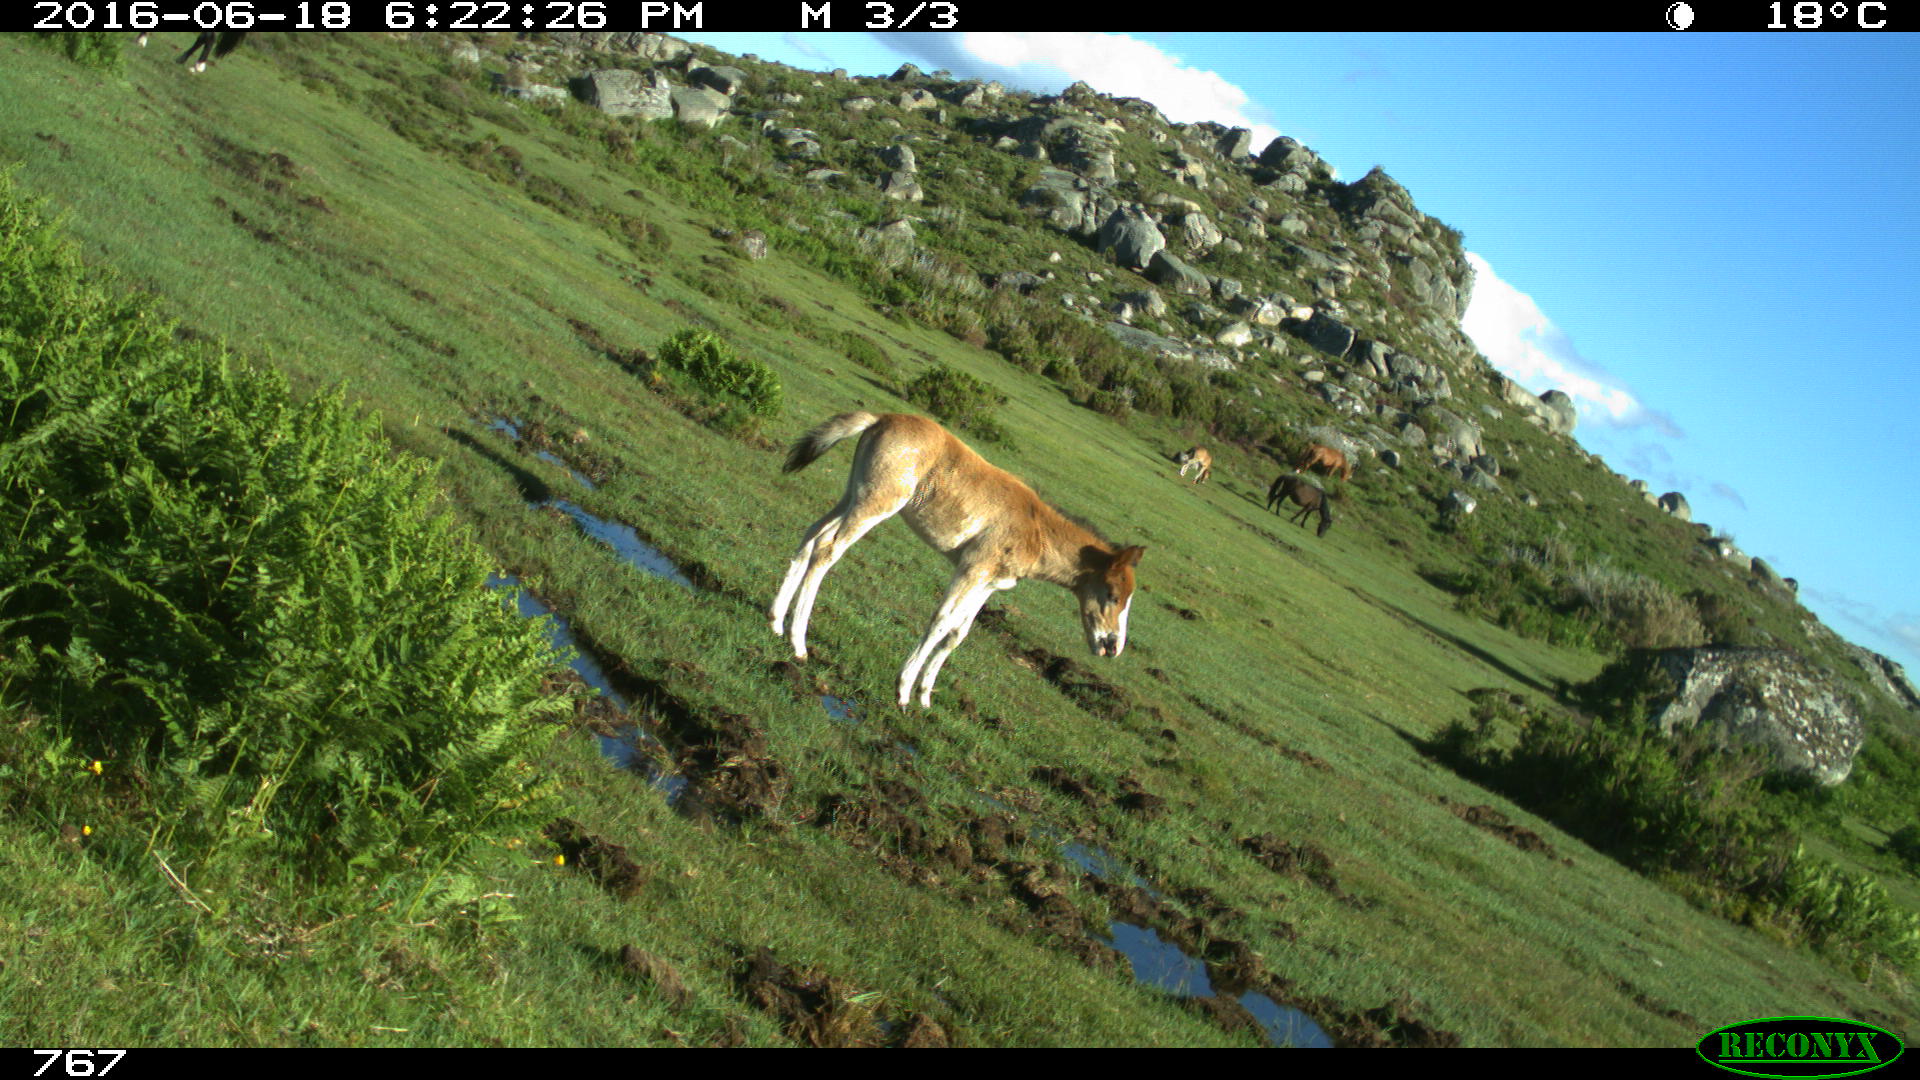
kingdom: Animalia
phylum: Chordata
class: Mammalia
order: Perissodactyla
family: Equidae
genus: Equus
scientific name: Equus caballus
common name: Horse
